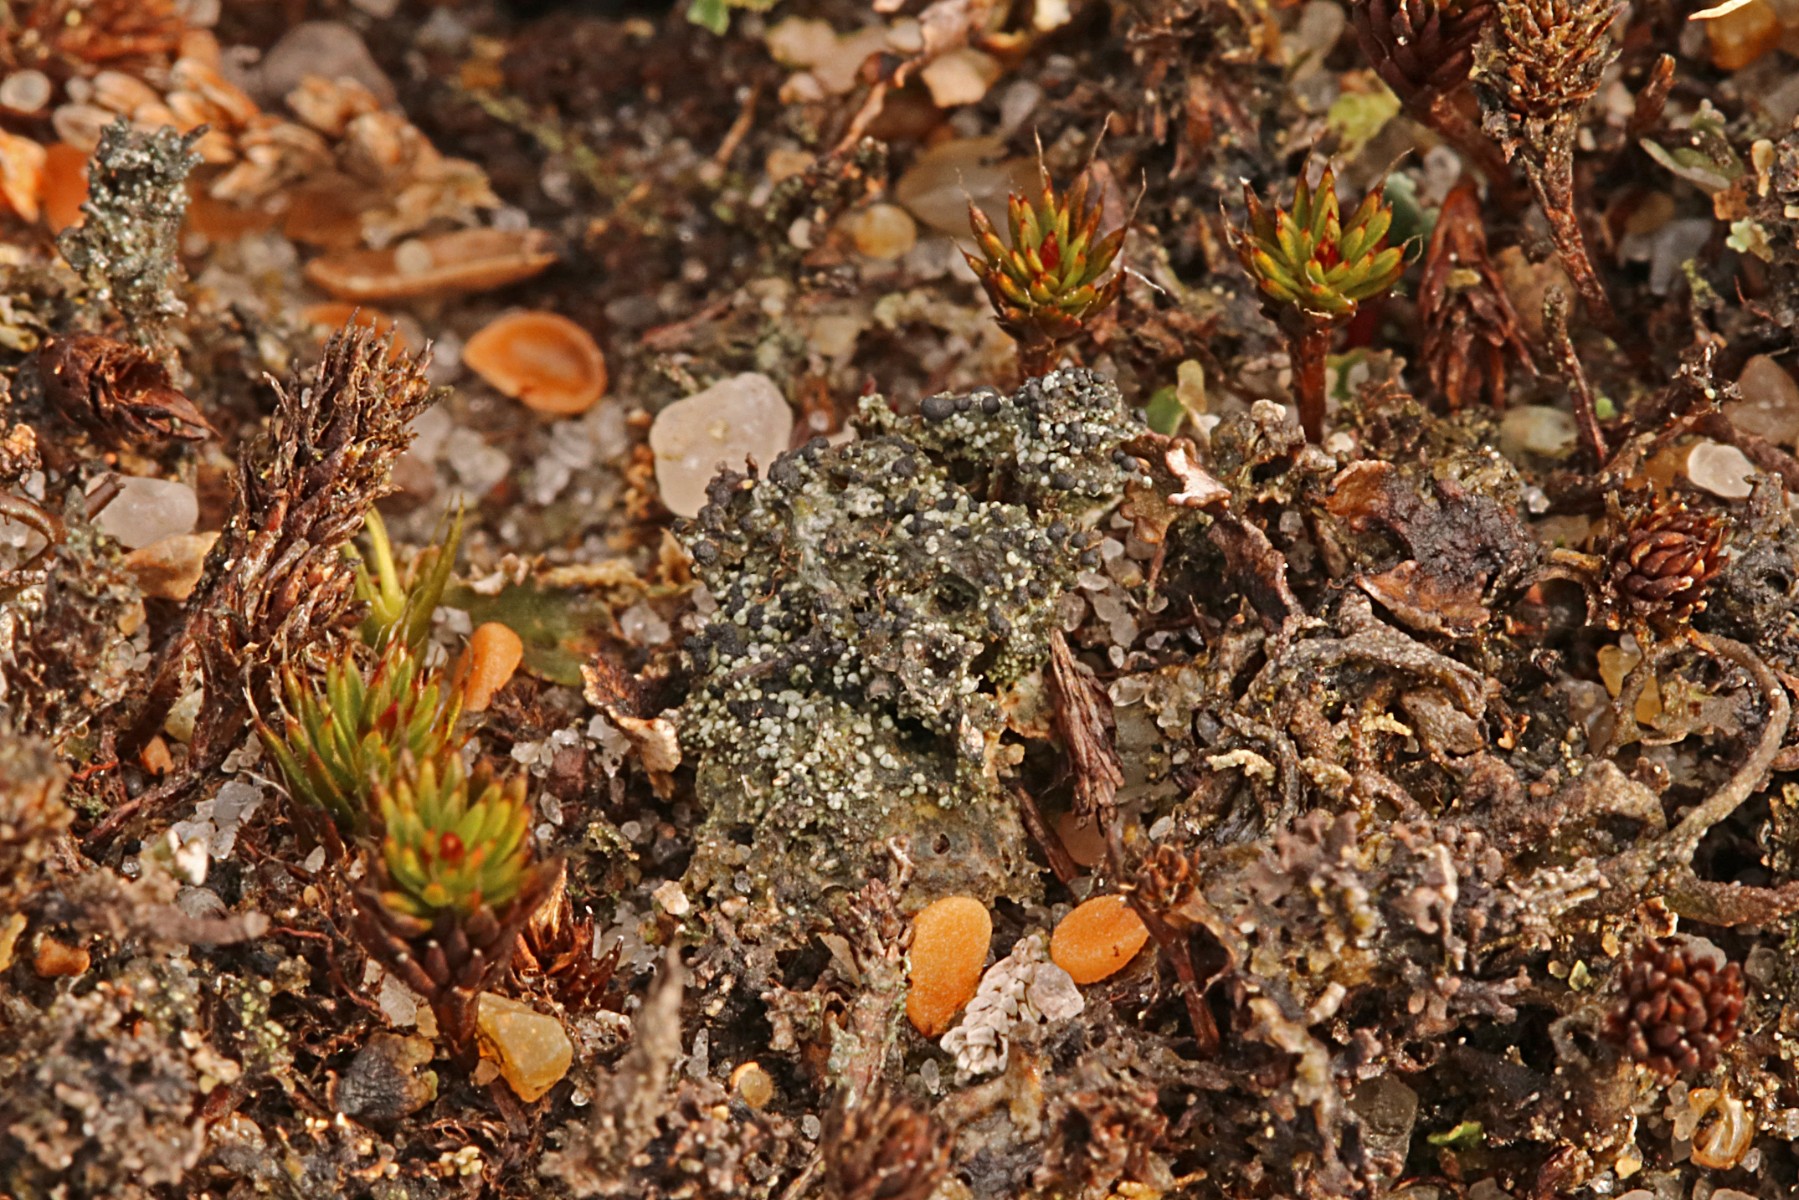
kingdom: Fungi
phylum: Ascomycota
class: Lecanoromycetes
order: Lecanorales
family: Byssolomataceae
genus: Micarea
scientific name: Micarea lignaria
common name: tørve-knaplav
